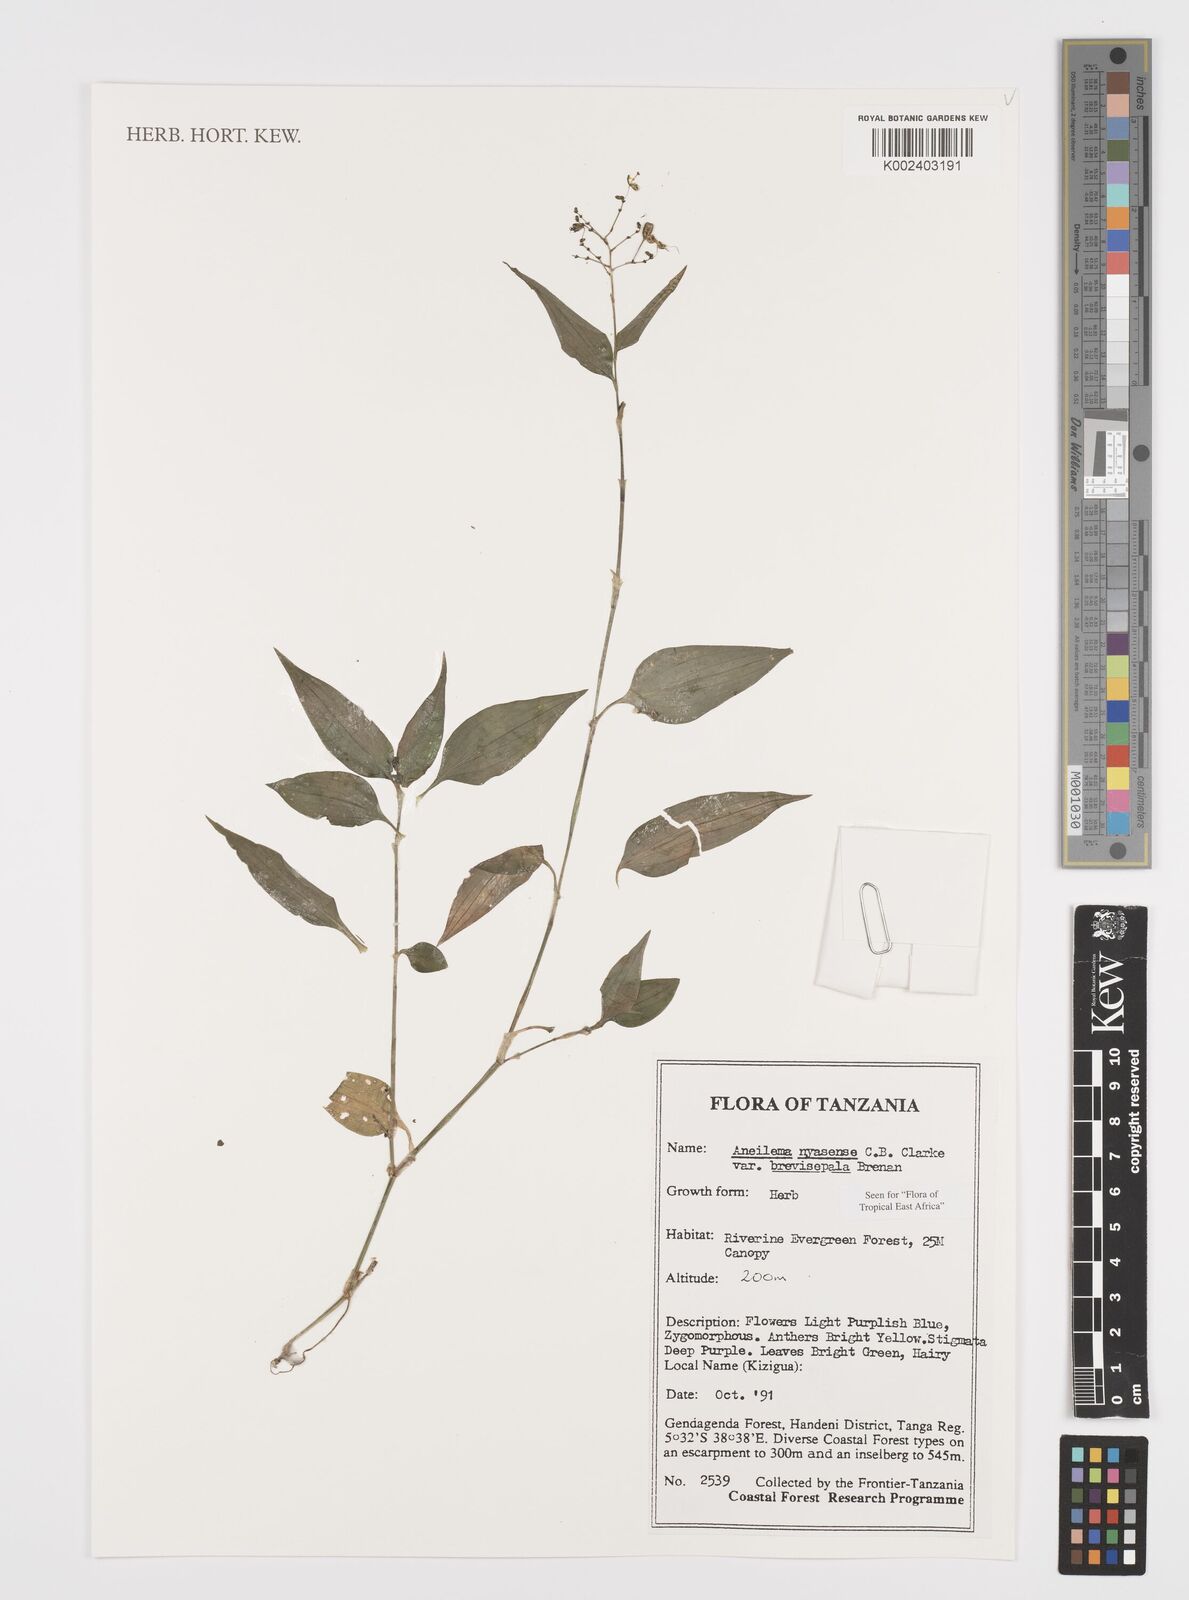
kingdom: Plantae
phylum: Tracheophyta
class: Liliopsida
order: Commelinales
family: Commelinaceae
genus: Aneilema
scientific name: Aneilema nyasense
